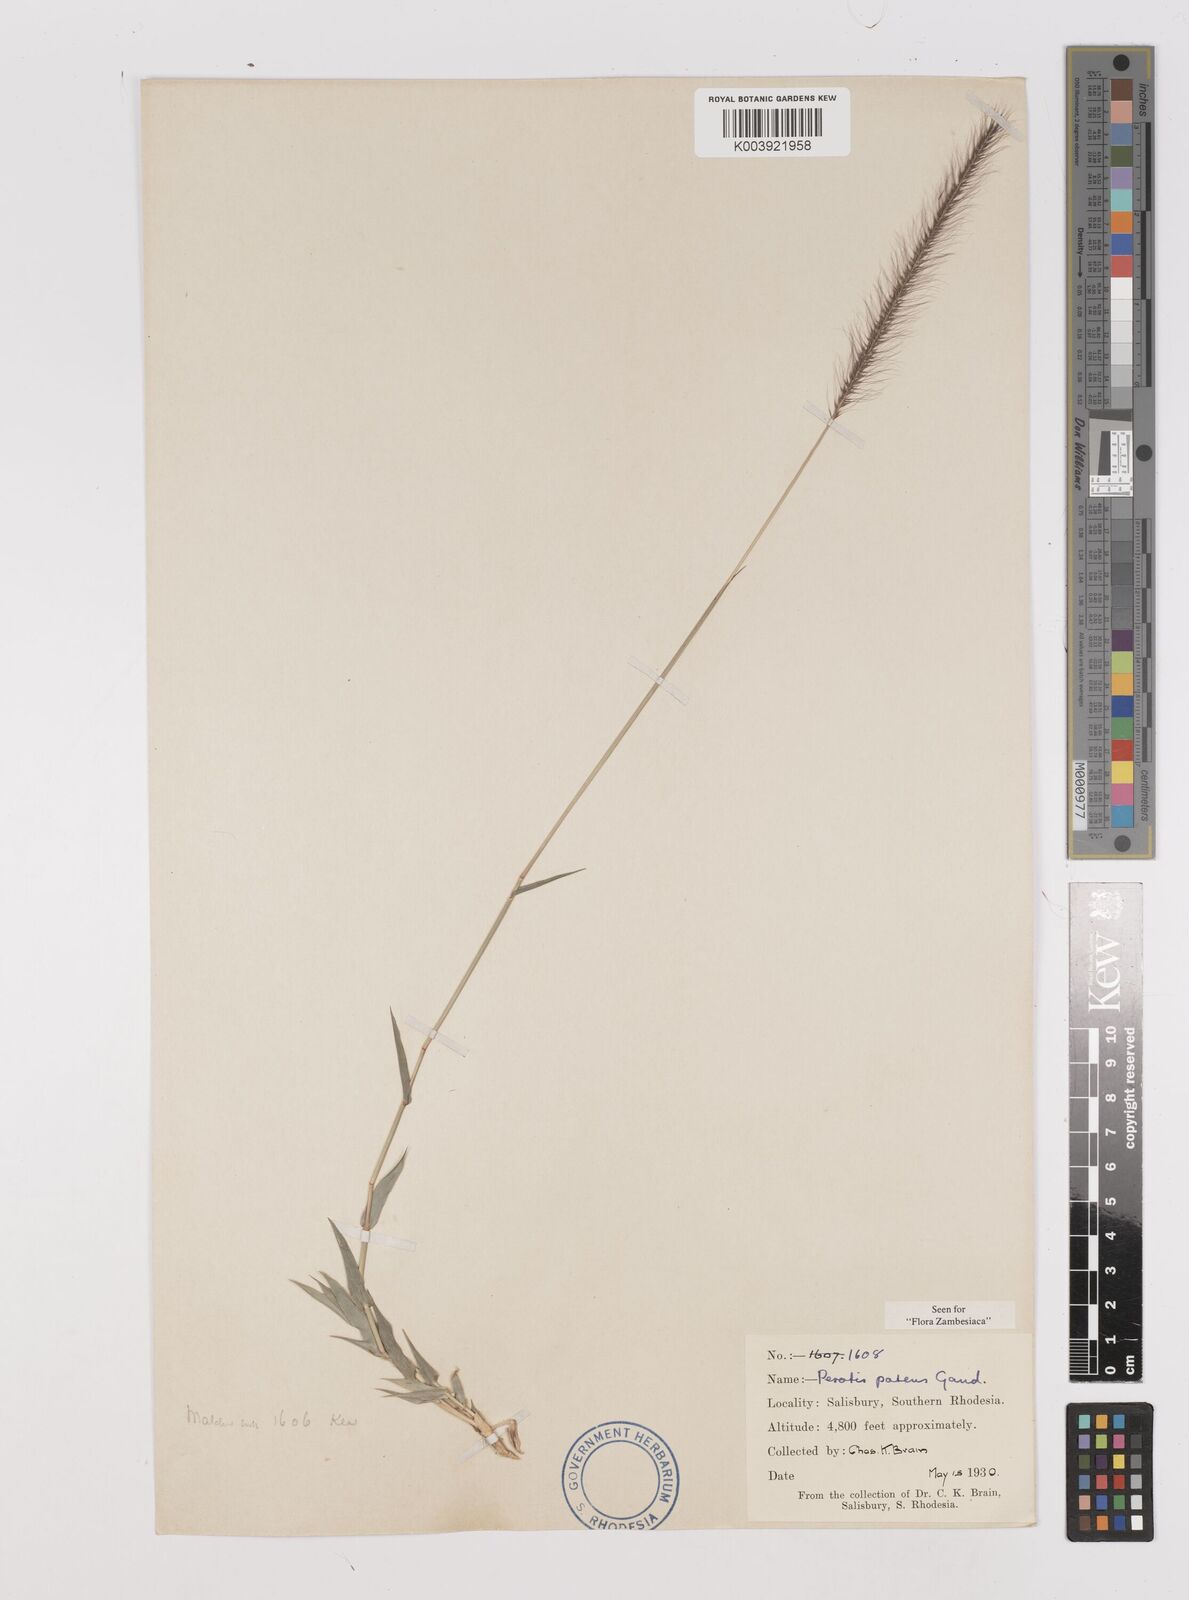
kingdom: Plantae
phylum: Tracheophyta
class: Liliopsida
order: Poales
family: Poaceae
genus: Perotis
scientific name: Perotis patens
